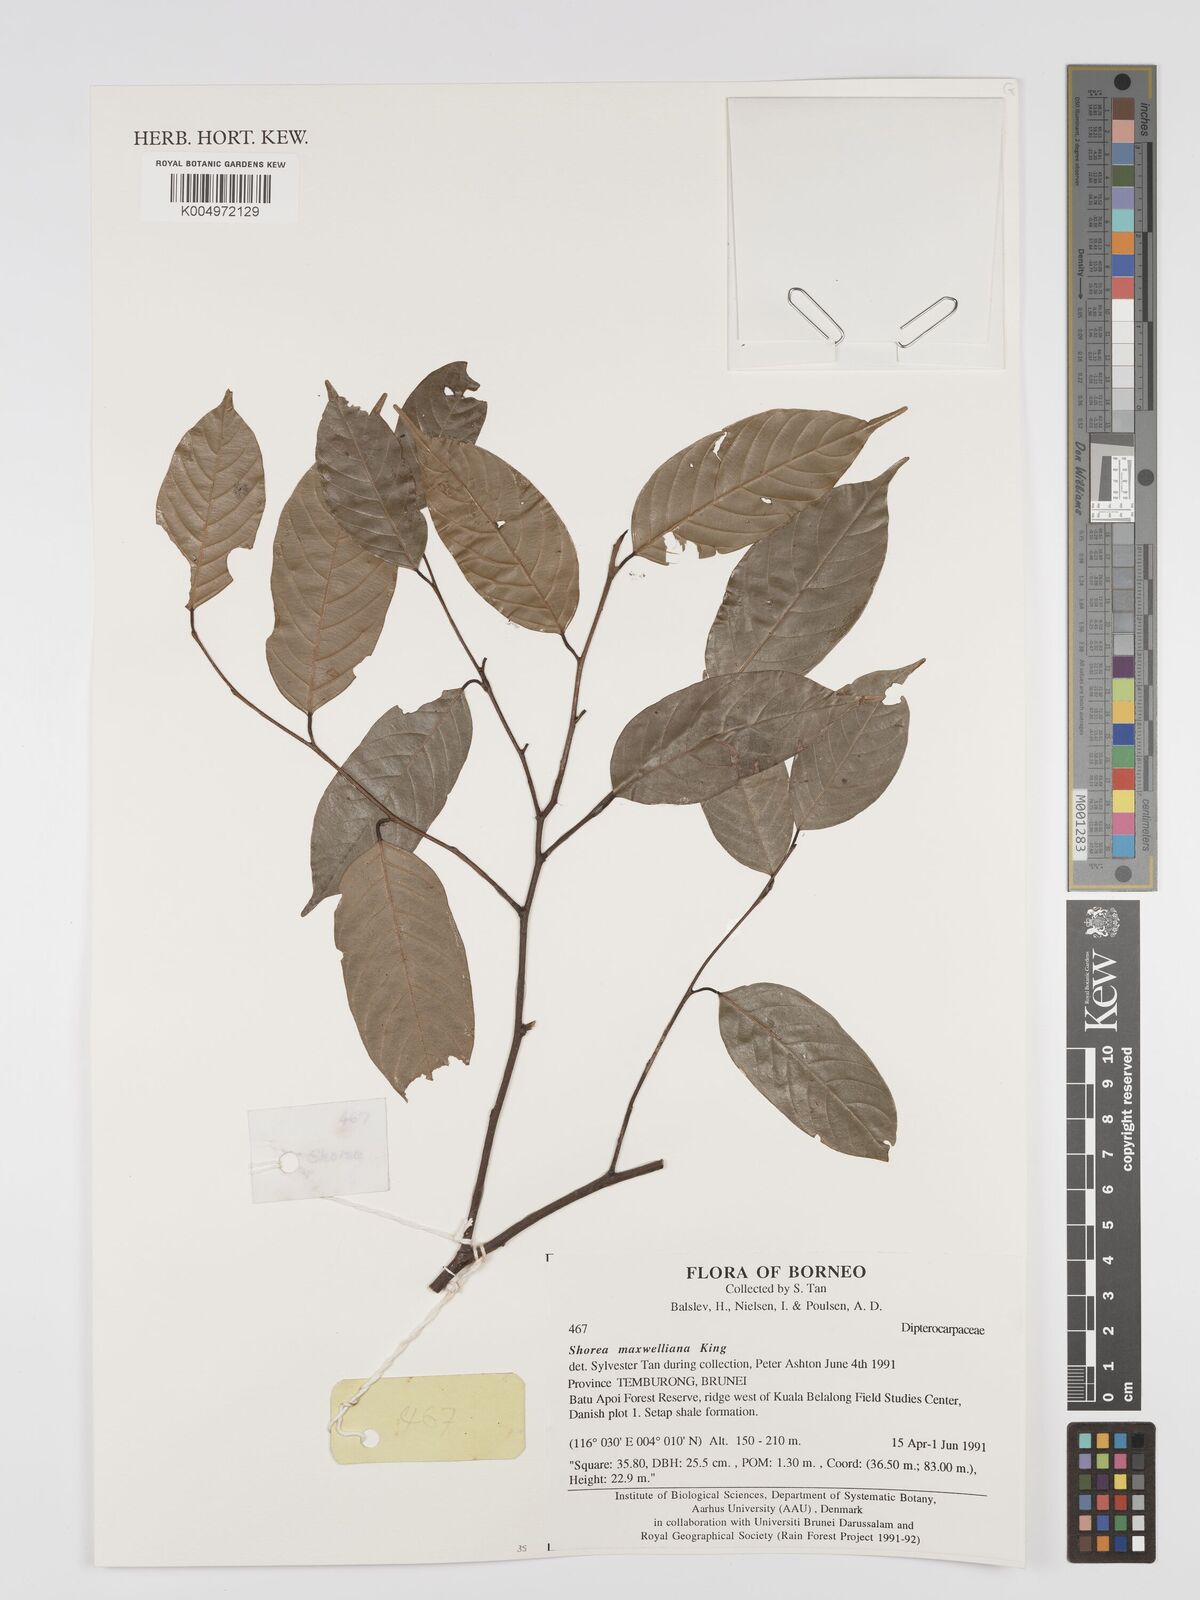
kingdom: Plantae
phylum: Tracheophyta
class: Magnoliopsida
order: Malvales
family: Dipterocarpaceae
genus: Shorea
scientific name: Shorea maxwelliana
